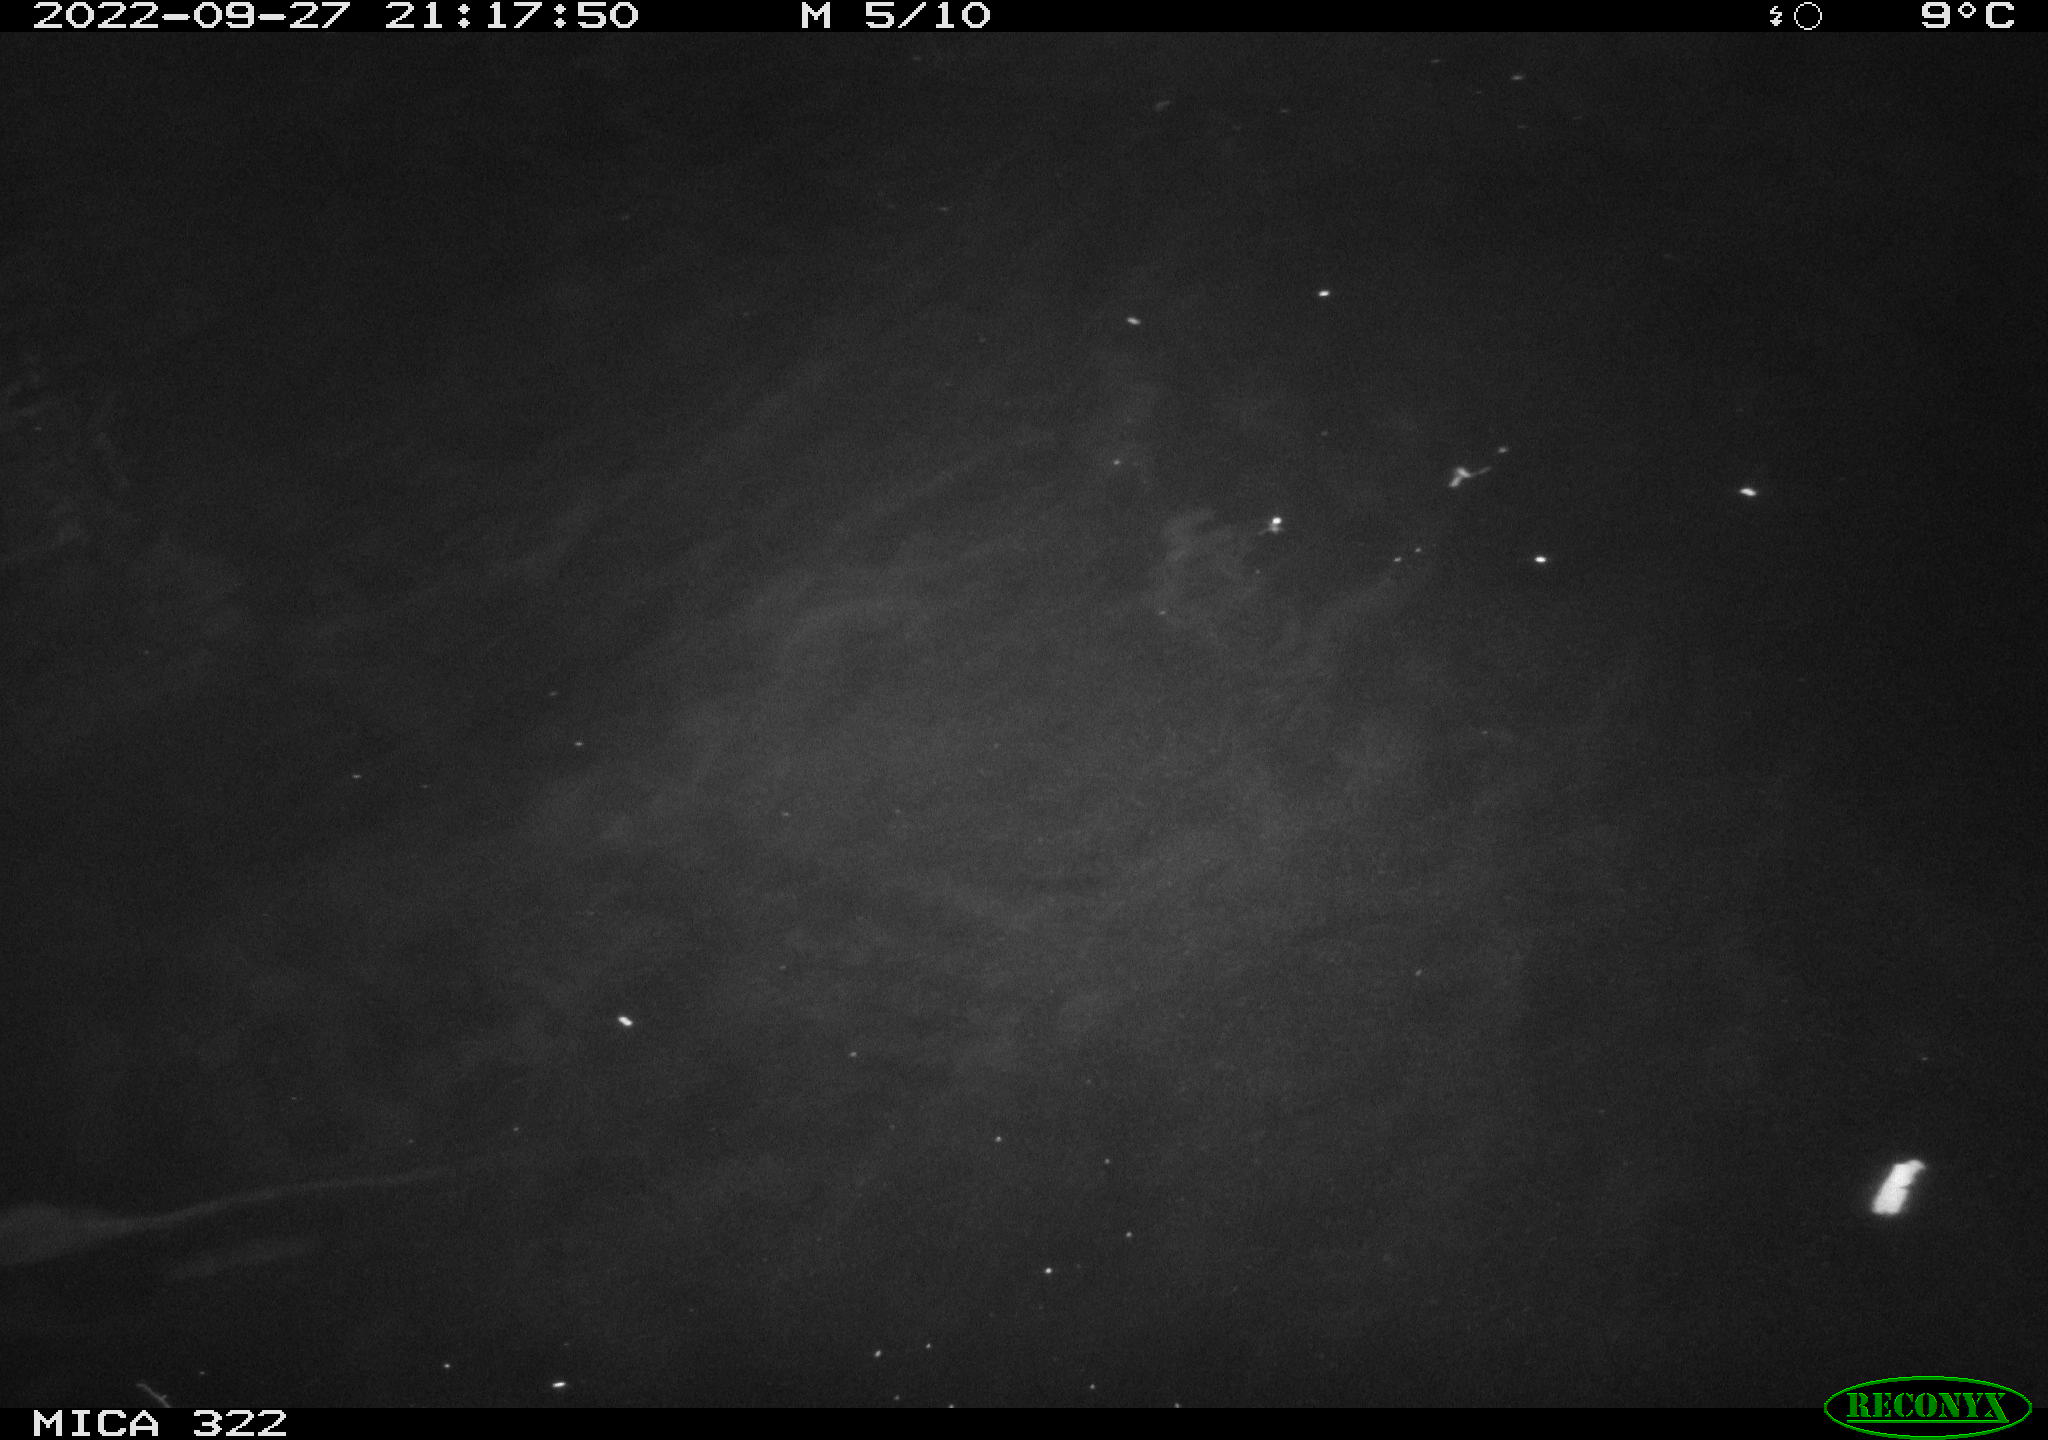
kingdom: Animalia
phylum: Chordata
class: Mammalia
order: Rodentia
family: Cricetidae
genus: Ondatra
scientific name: Ondatra zibethicus
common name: Muskrat
